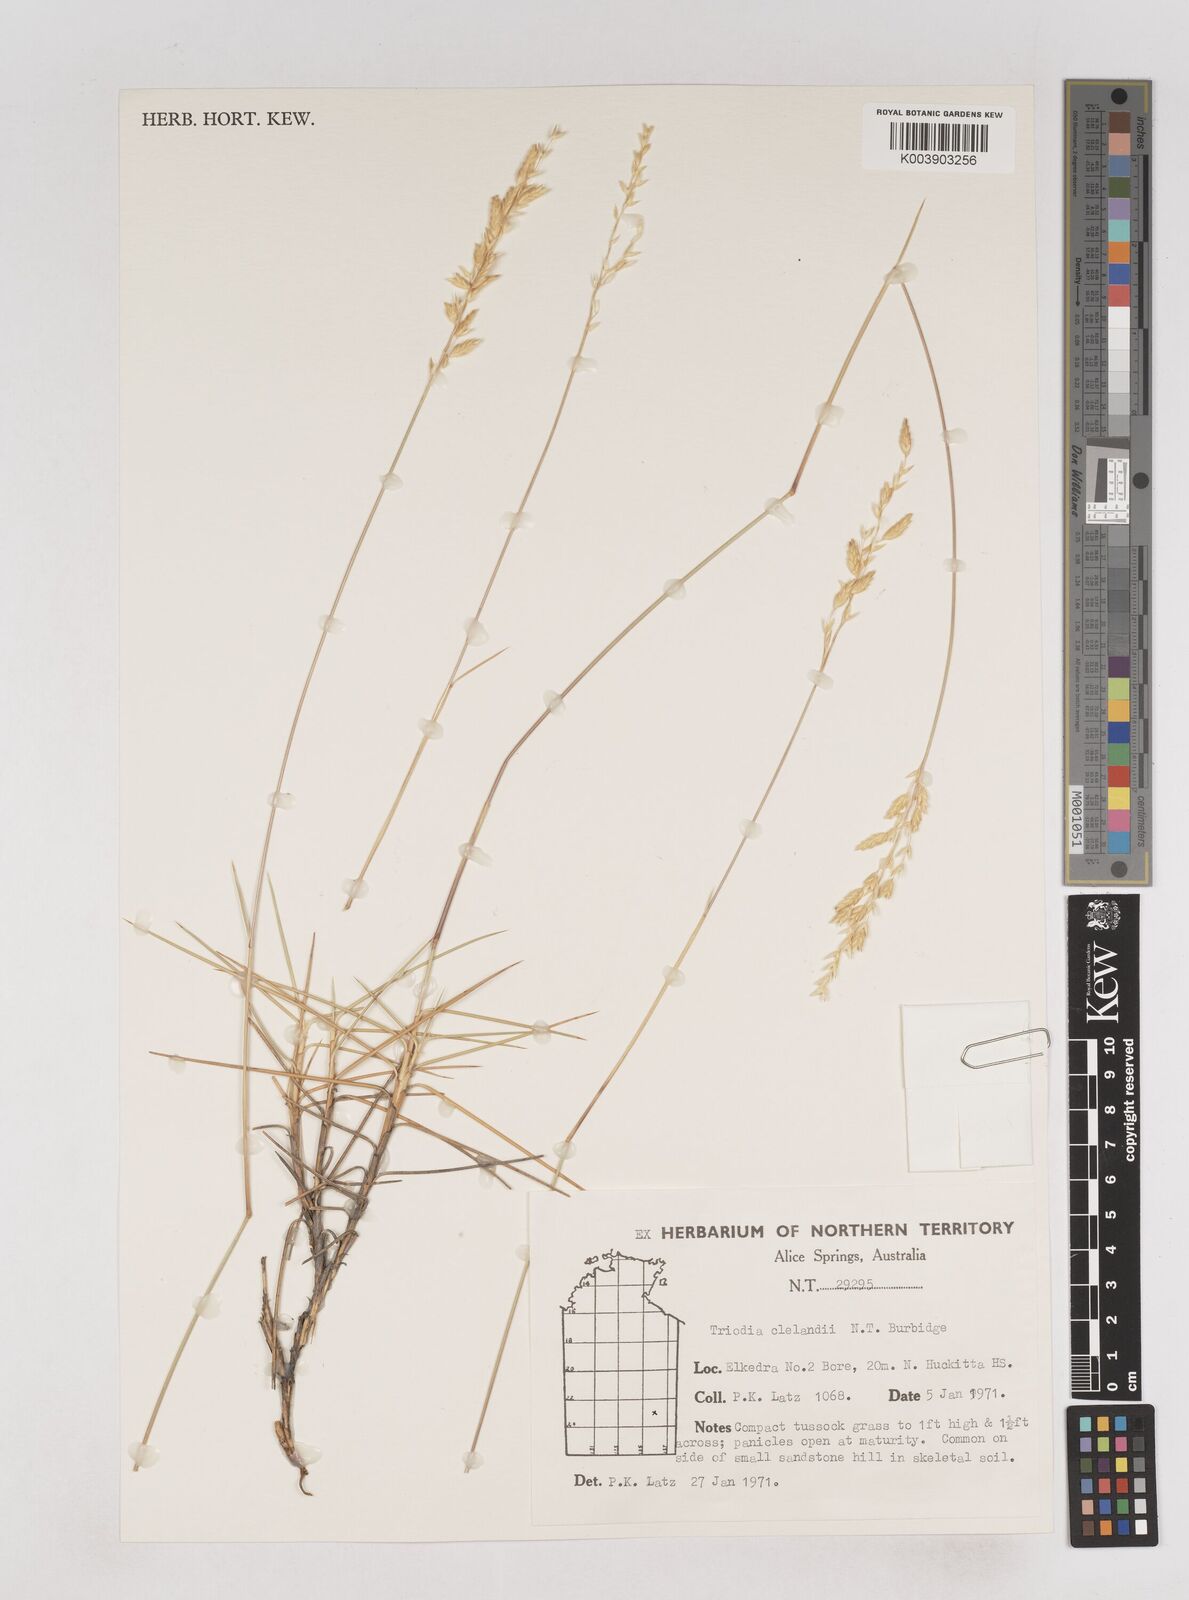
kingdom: Plantae
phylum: Tracheophyta
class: Liliopsida
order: Poales
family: Poaceae
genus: Triodia
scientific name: Triodia brizoides
